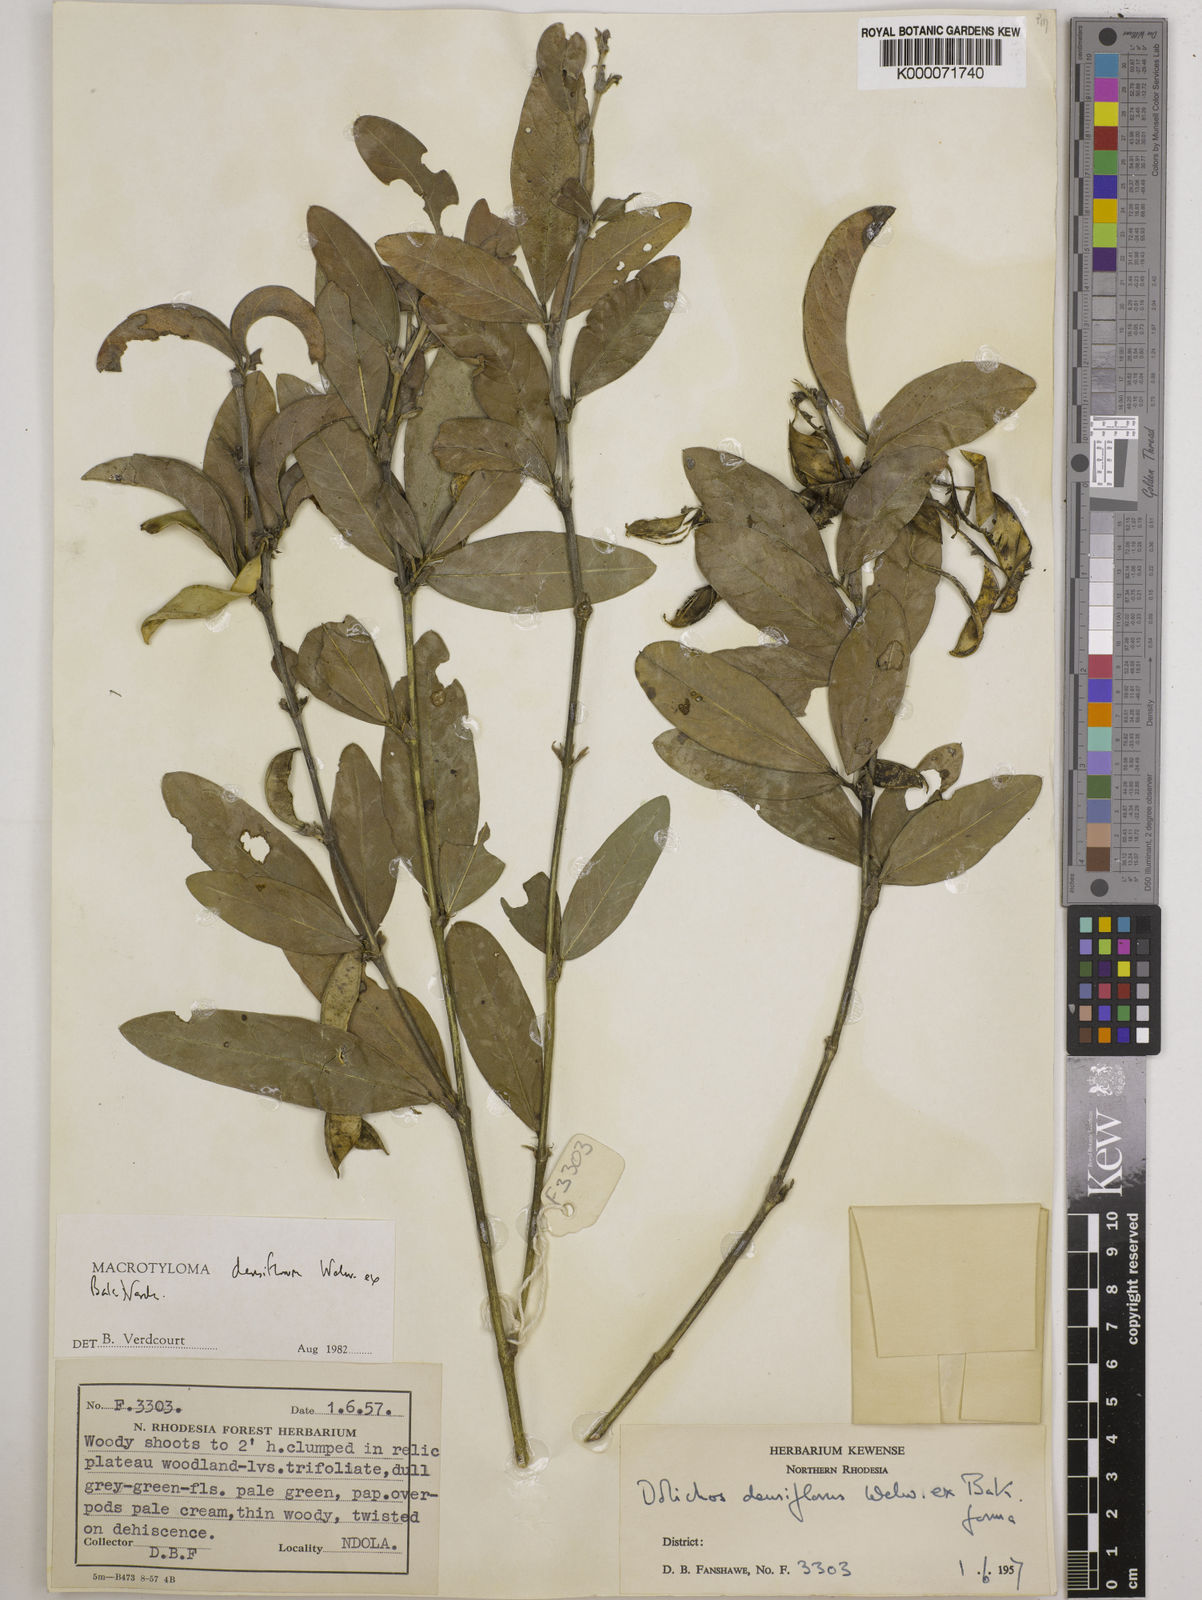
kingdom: Plantae
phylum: Tracheophyta
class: Magnoliopsida
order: Fabales
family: Fabaceae
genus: Macrotyloma
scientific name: Macrotyloma densiflorum
